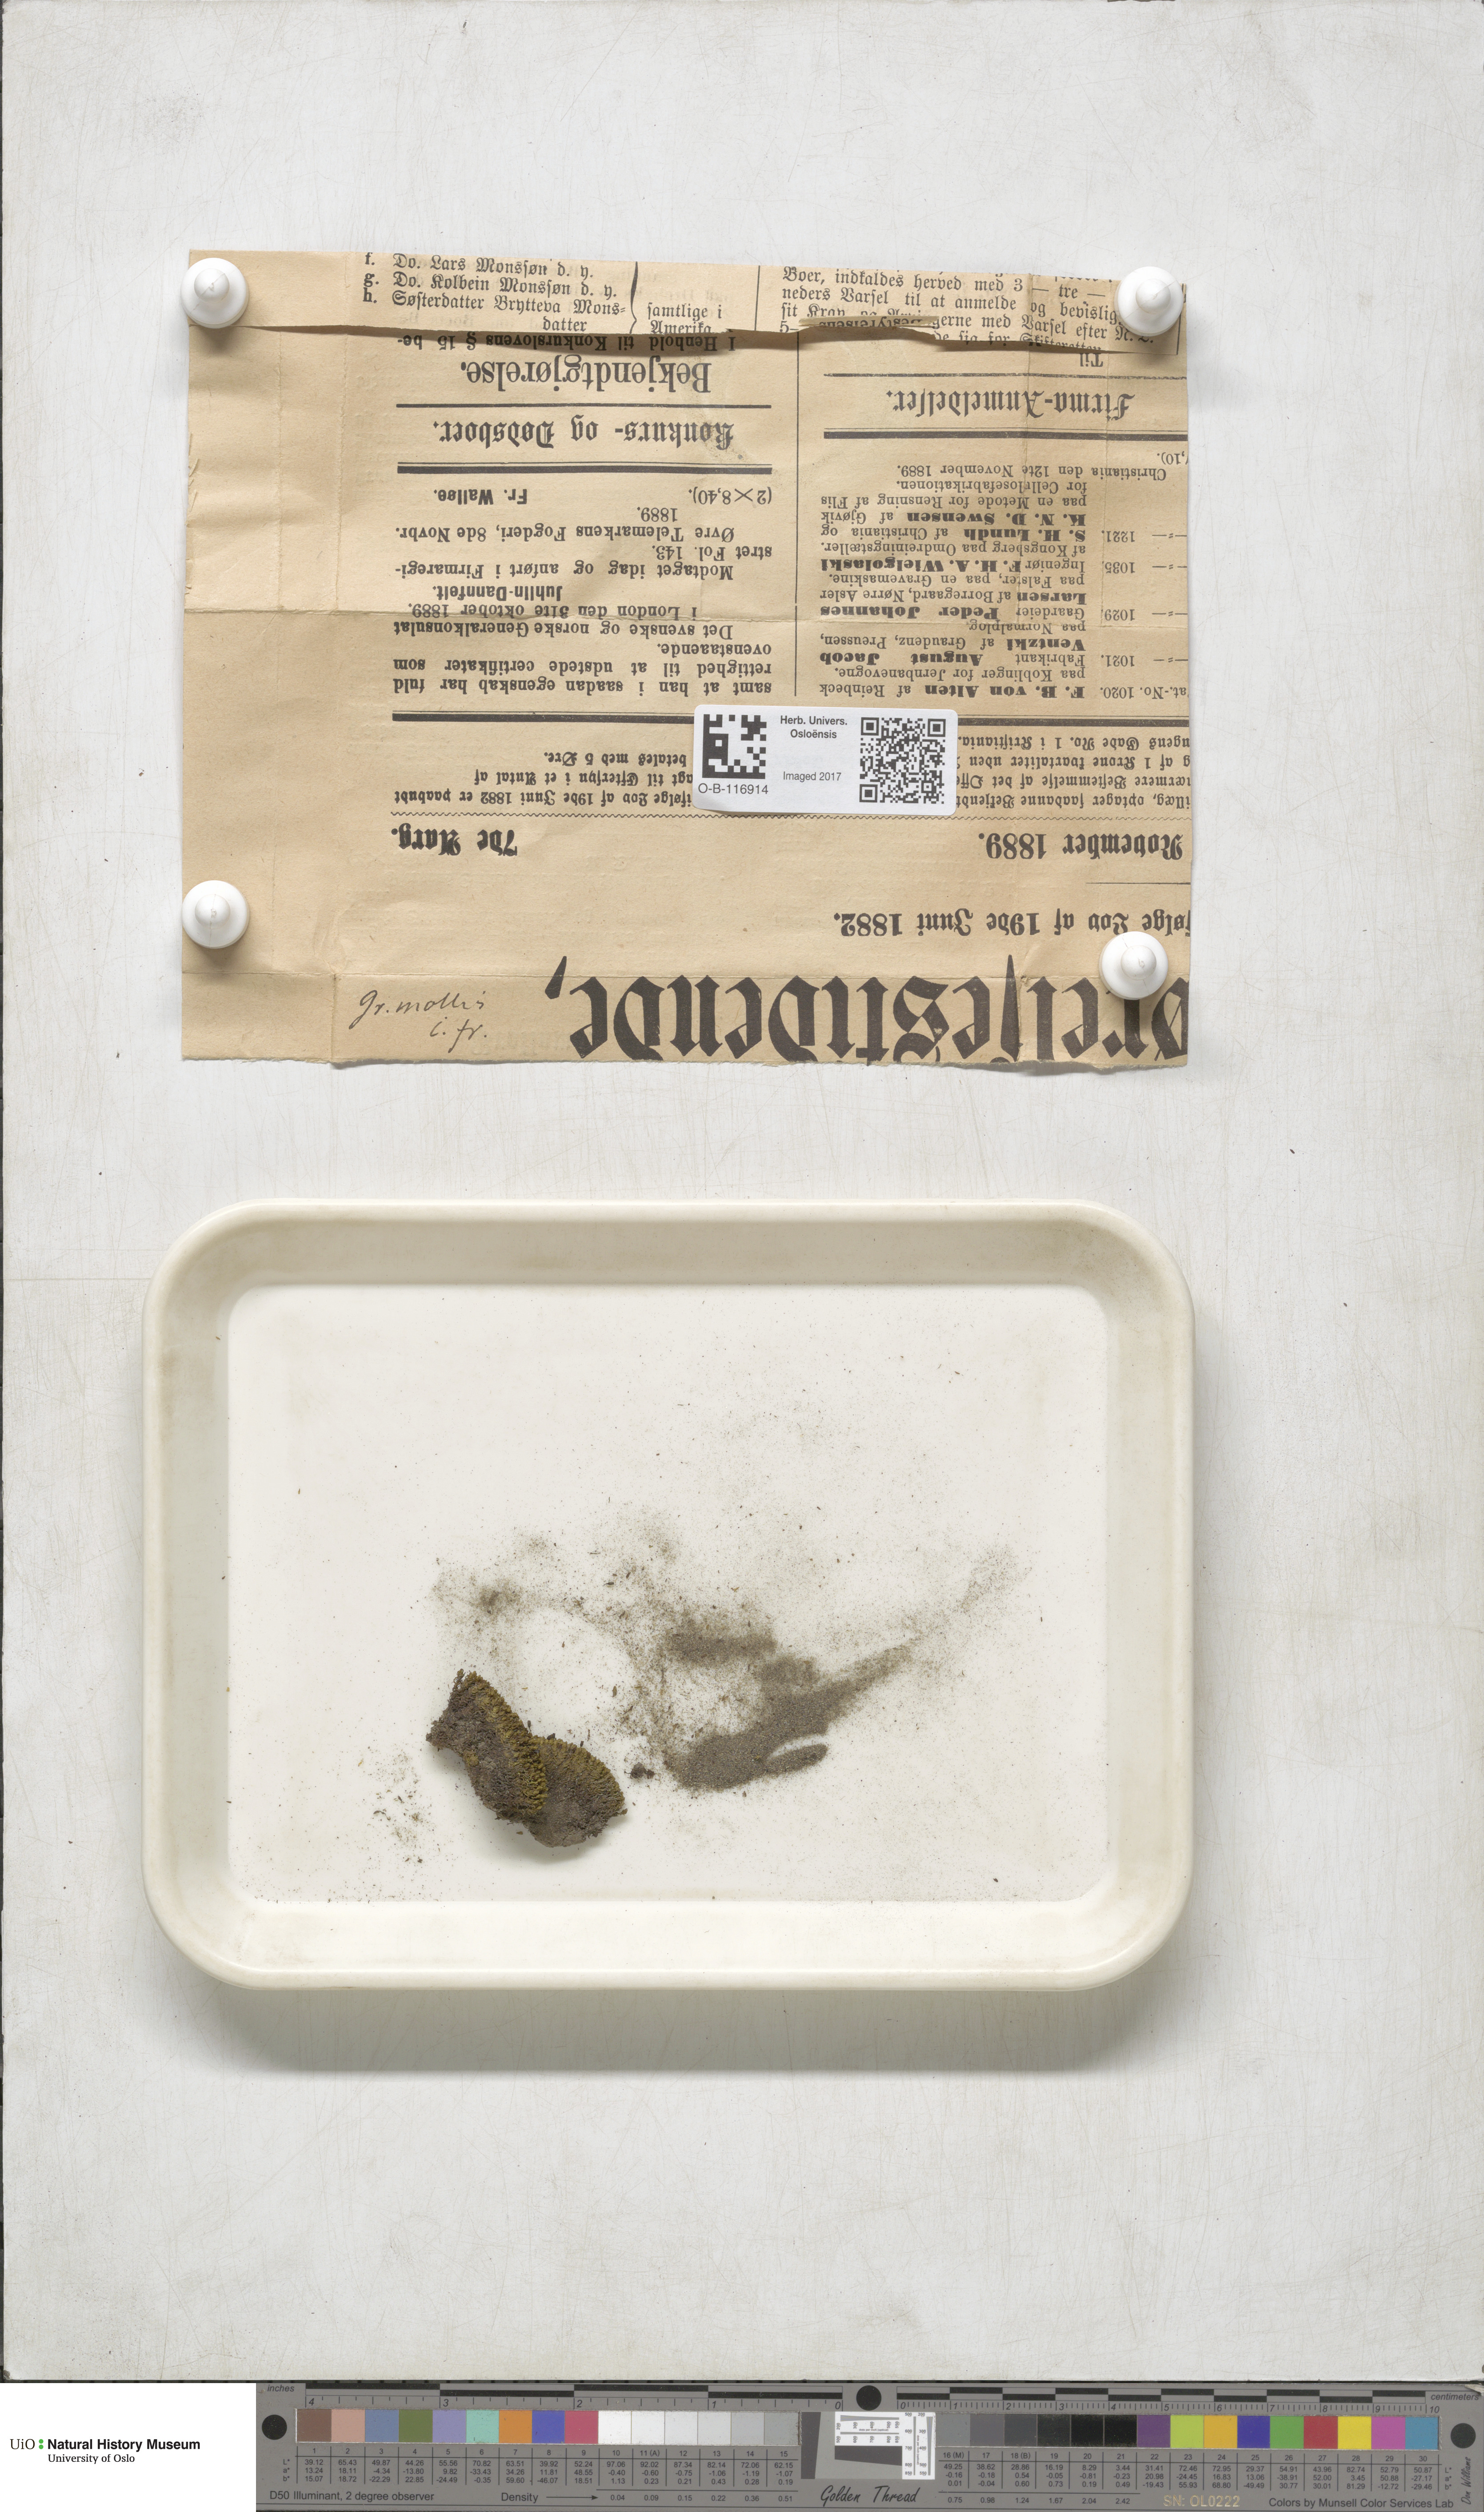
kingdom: Plantae
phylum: Bryophyta
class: Bryopsida
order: Grimmiales
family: Grimmiaceae
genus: Grimmia
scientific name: Grimmia mollis
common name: Water grimmia
